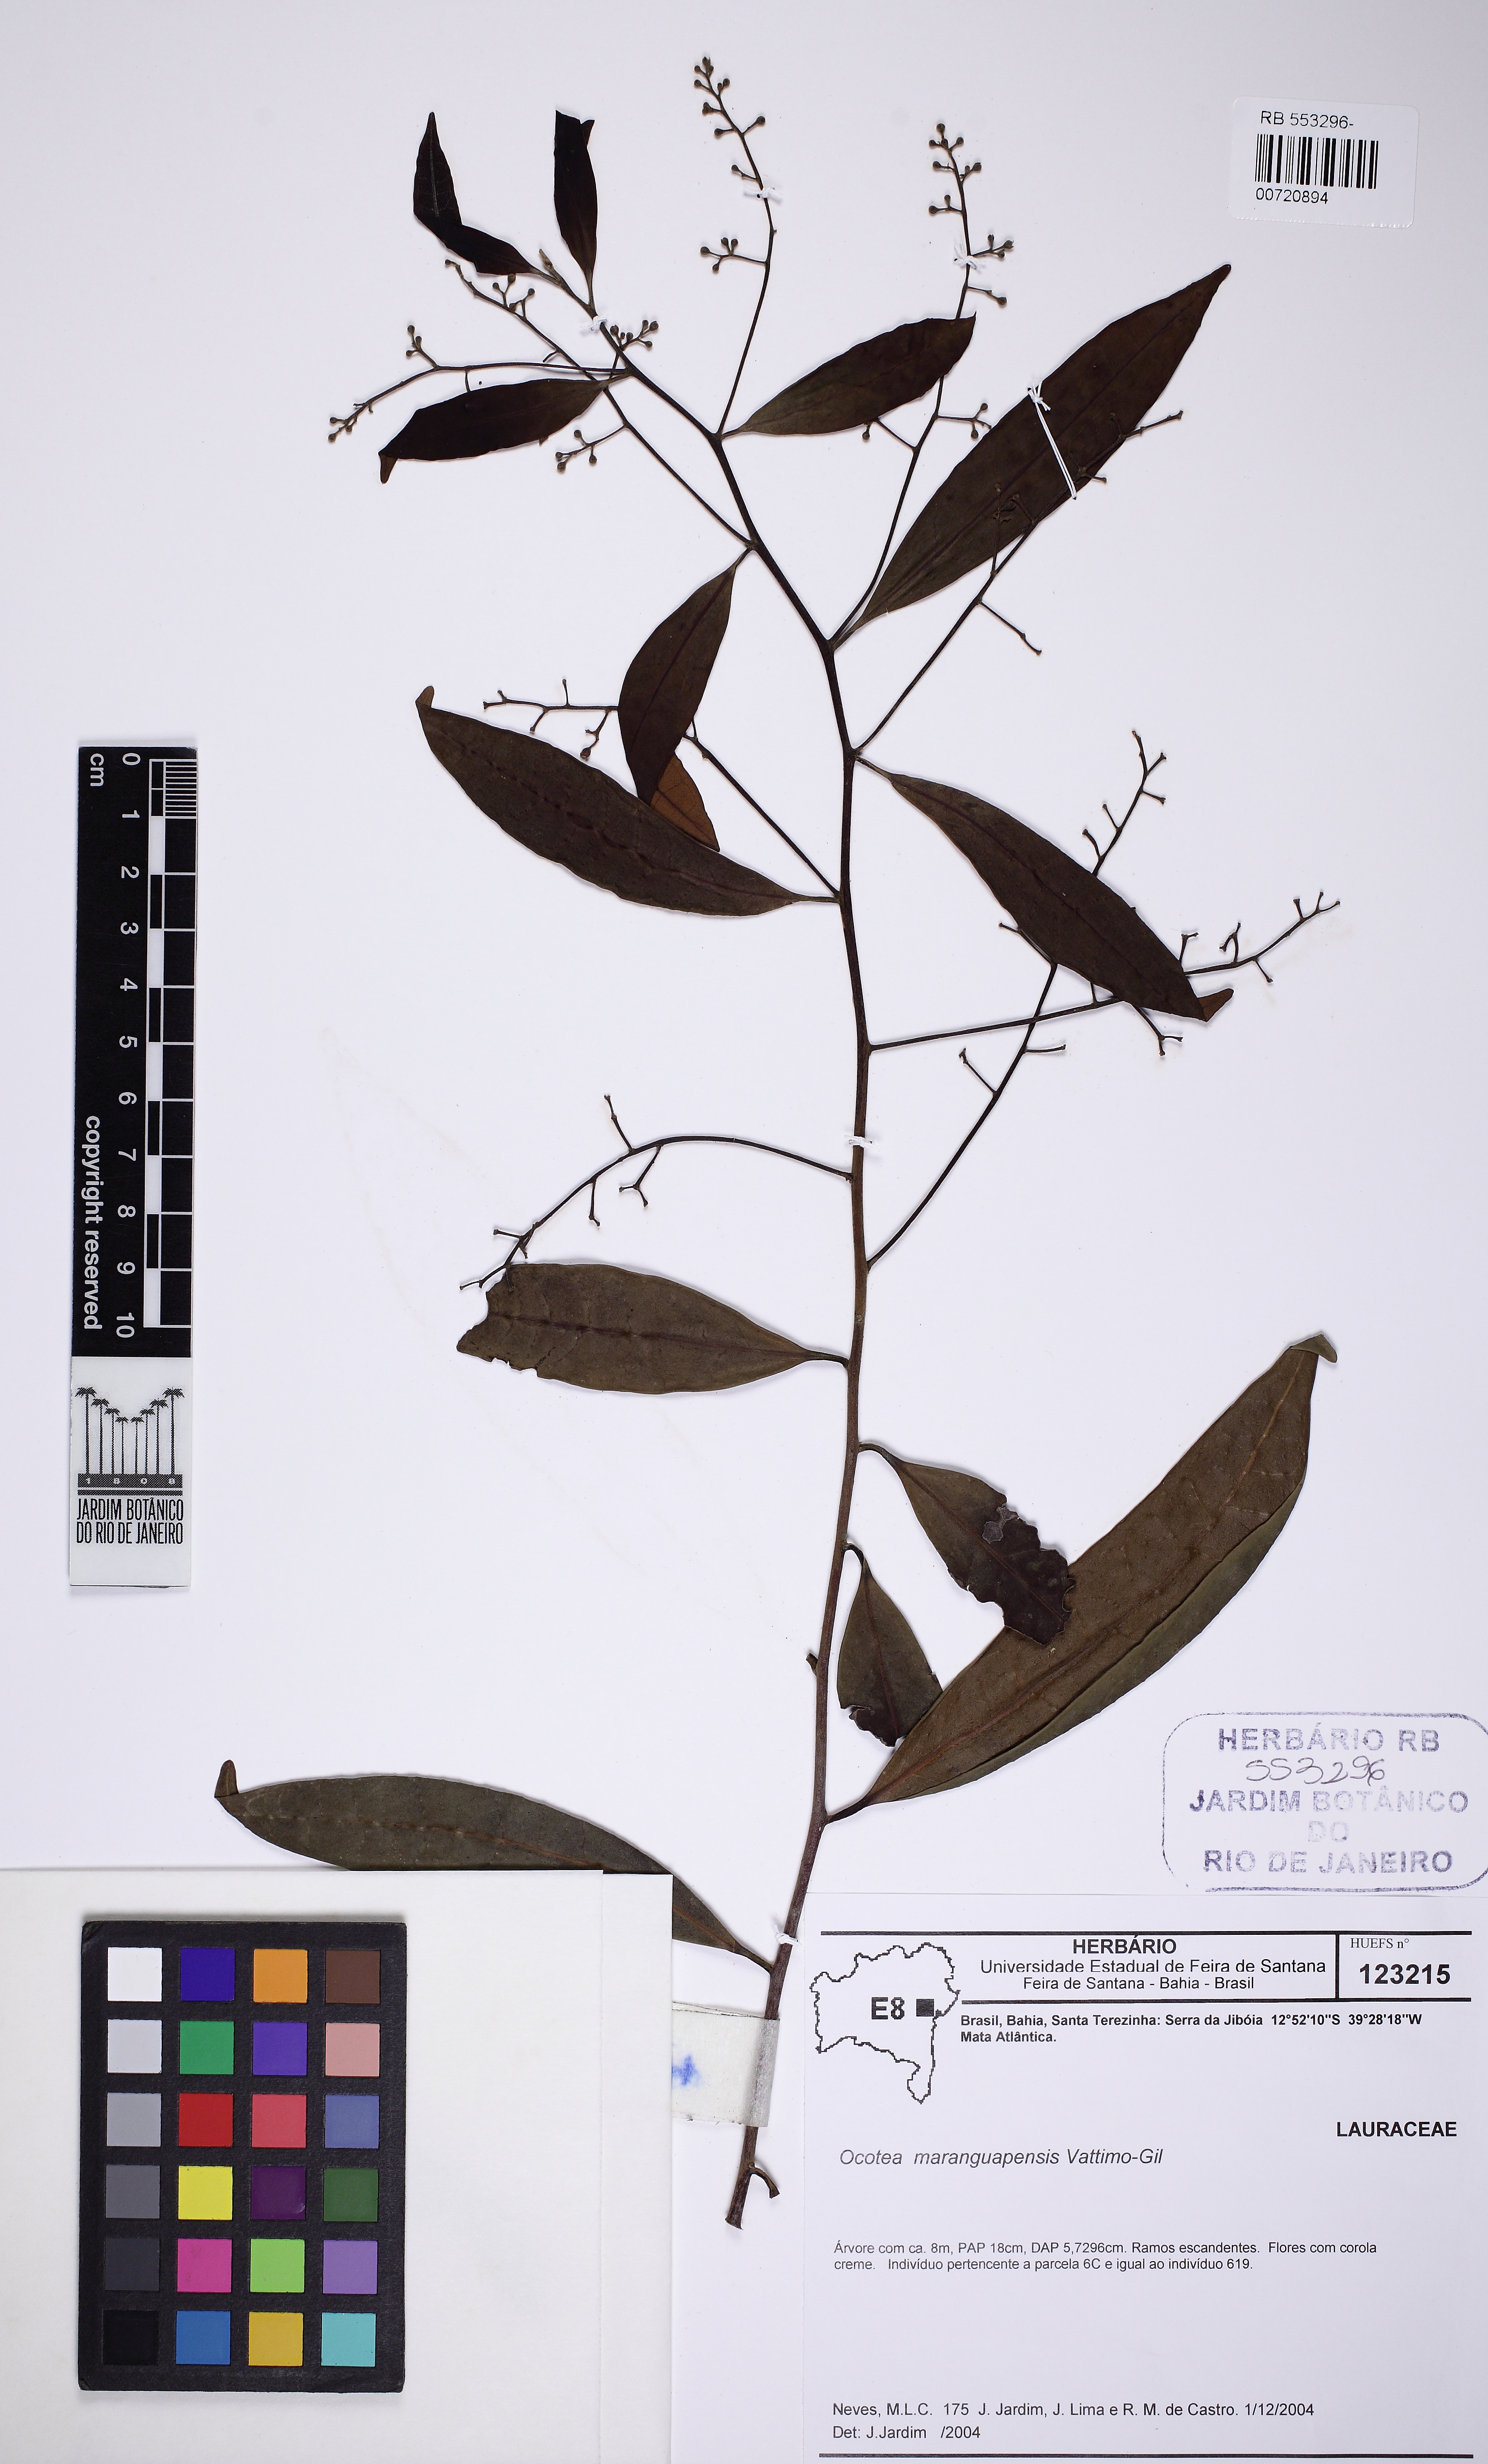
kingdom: Plantae
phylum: Tracheophyta
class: Magnoliopsida
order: Laurales
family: Lauraceae
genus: Ocotea
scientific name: Ocotea maranguapensis
